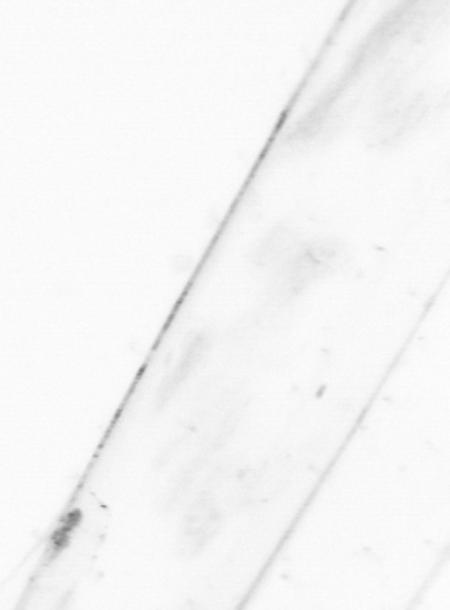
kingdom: Animalia
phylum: Chaetognatha
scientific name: Chaetognatha
